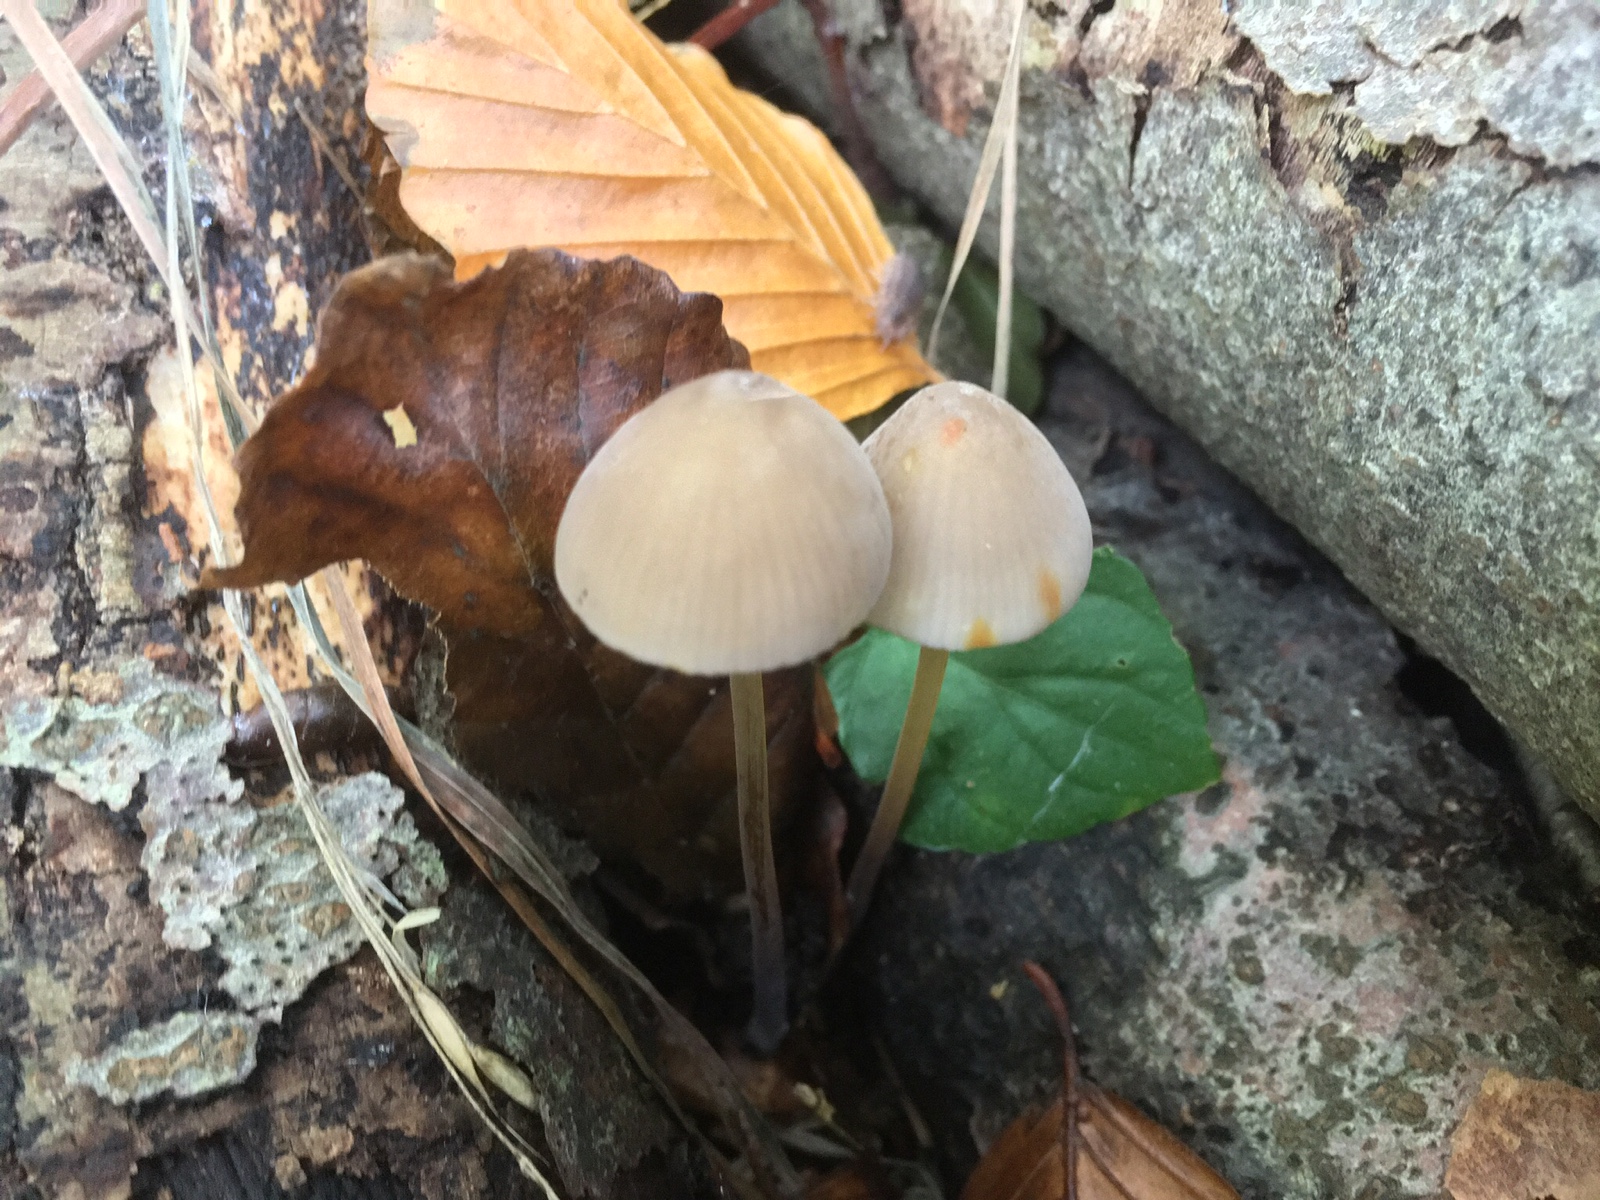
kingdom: Fungi
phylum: Basidiomycota
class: Agaricomycetes
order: Agaricales
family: Mycenaceae
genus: Mycena
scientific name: Mycena crocata
